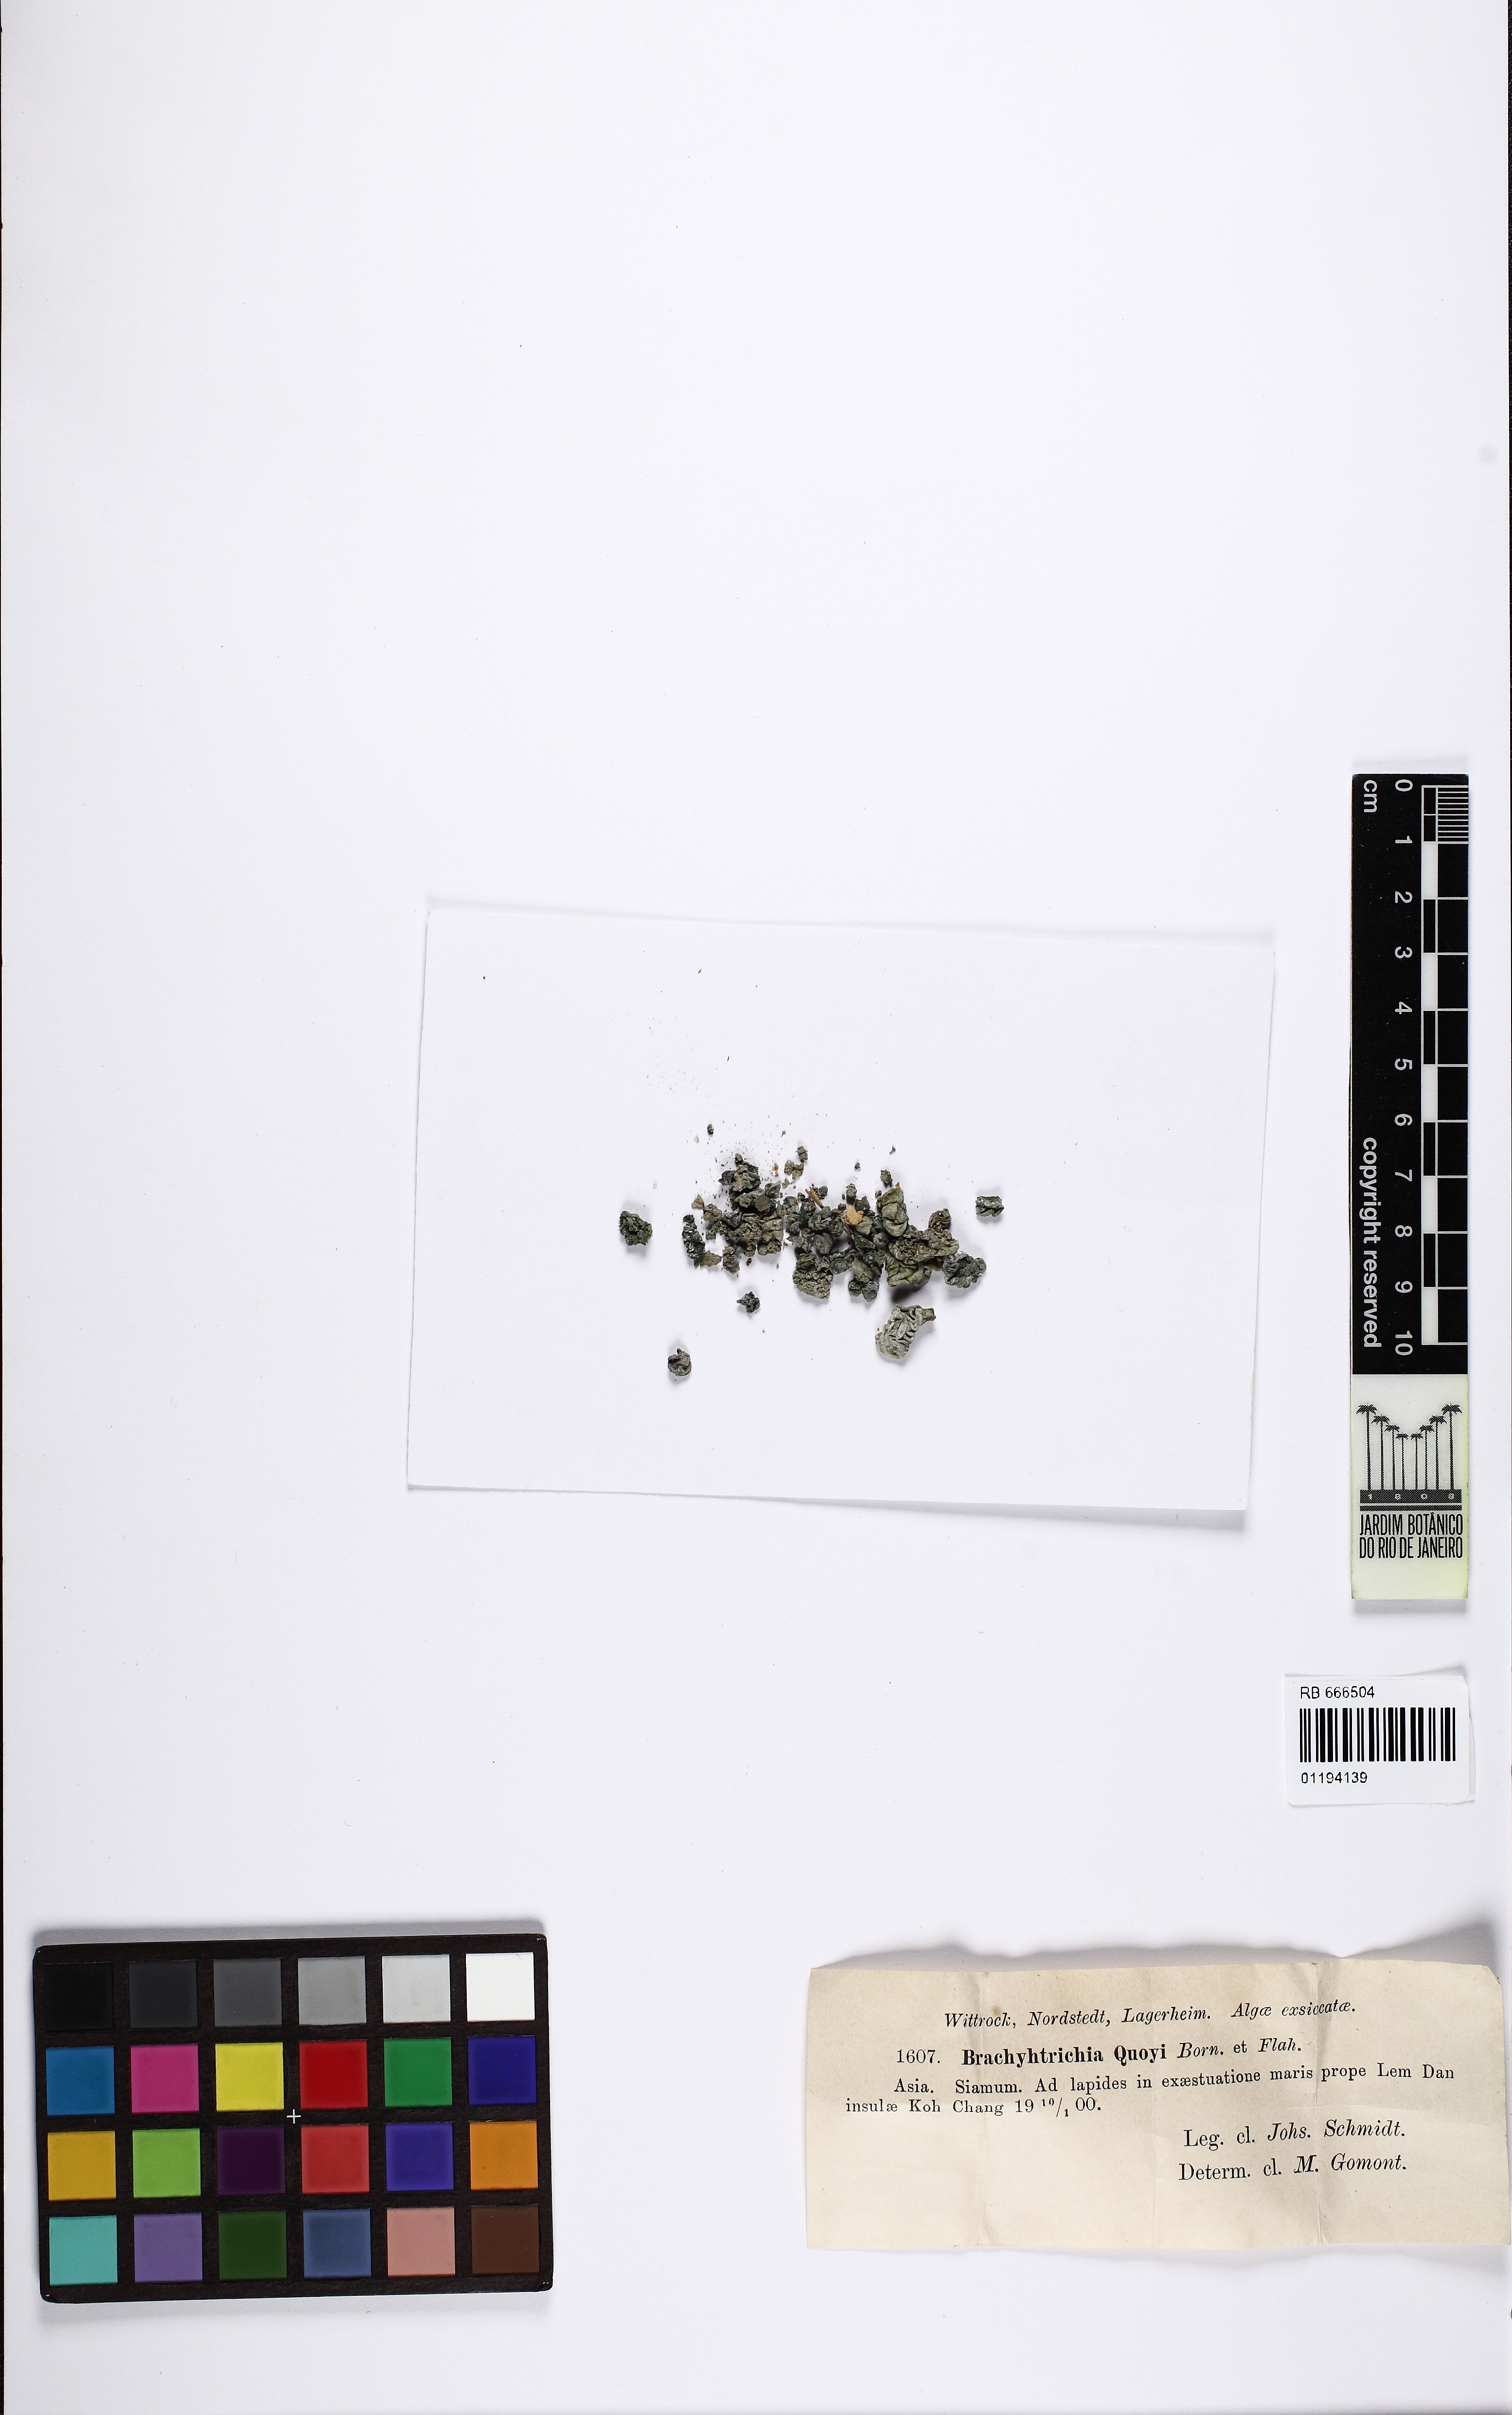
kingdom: Bacteria
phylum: Cyanobacteria
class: Cyanobacteriia
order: Cyanobacteriales
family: Scytonemataceae
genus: Brachytrichia
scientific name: Brachytrichia quoyi
